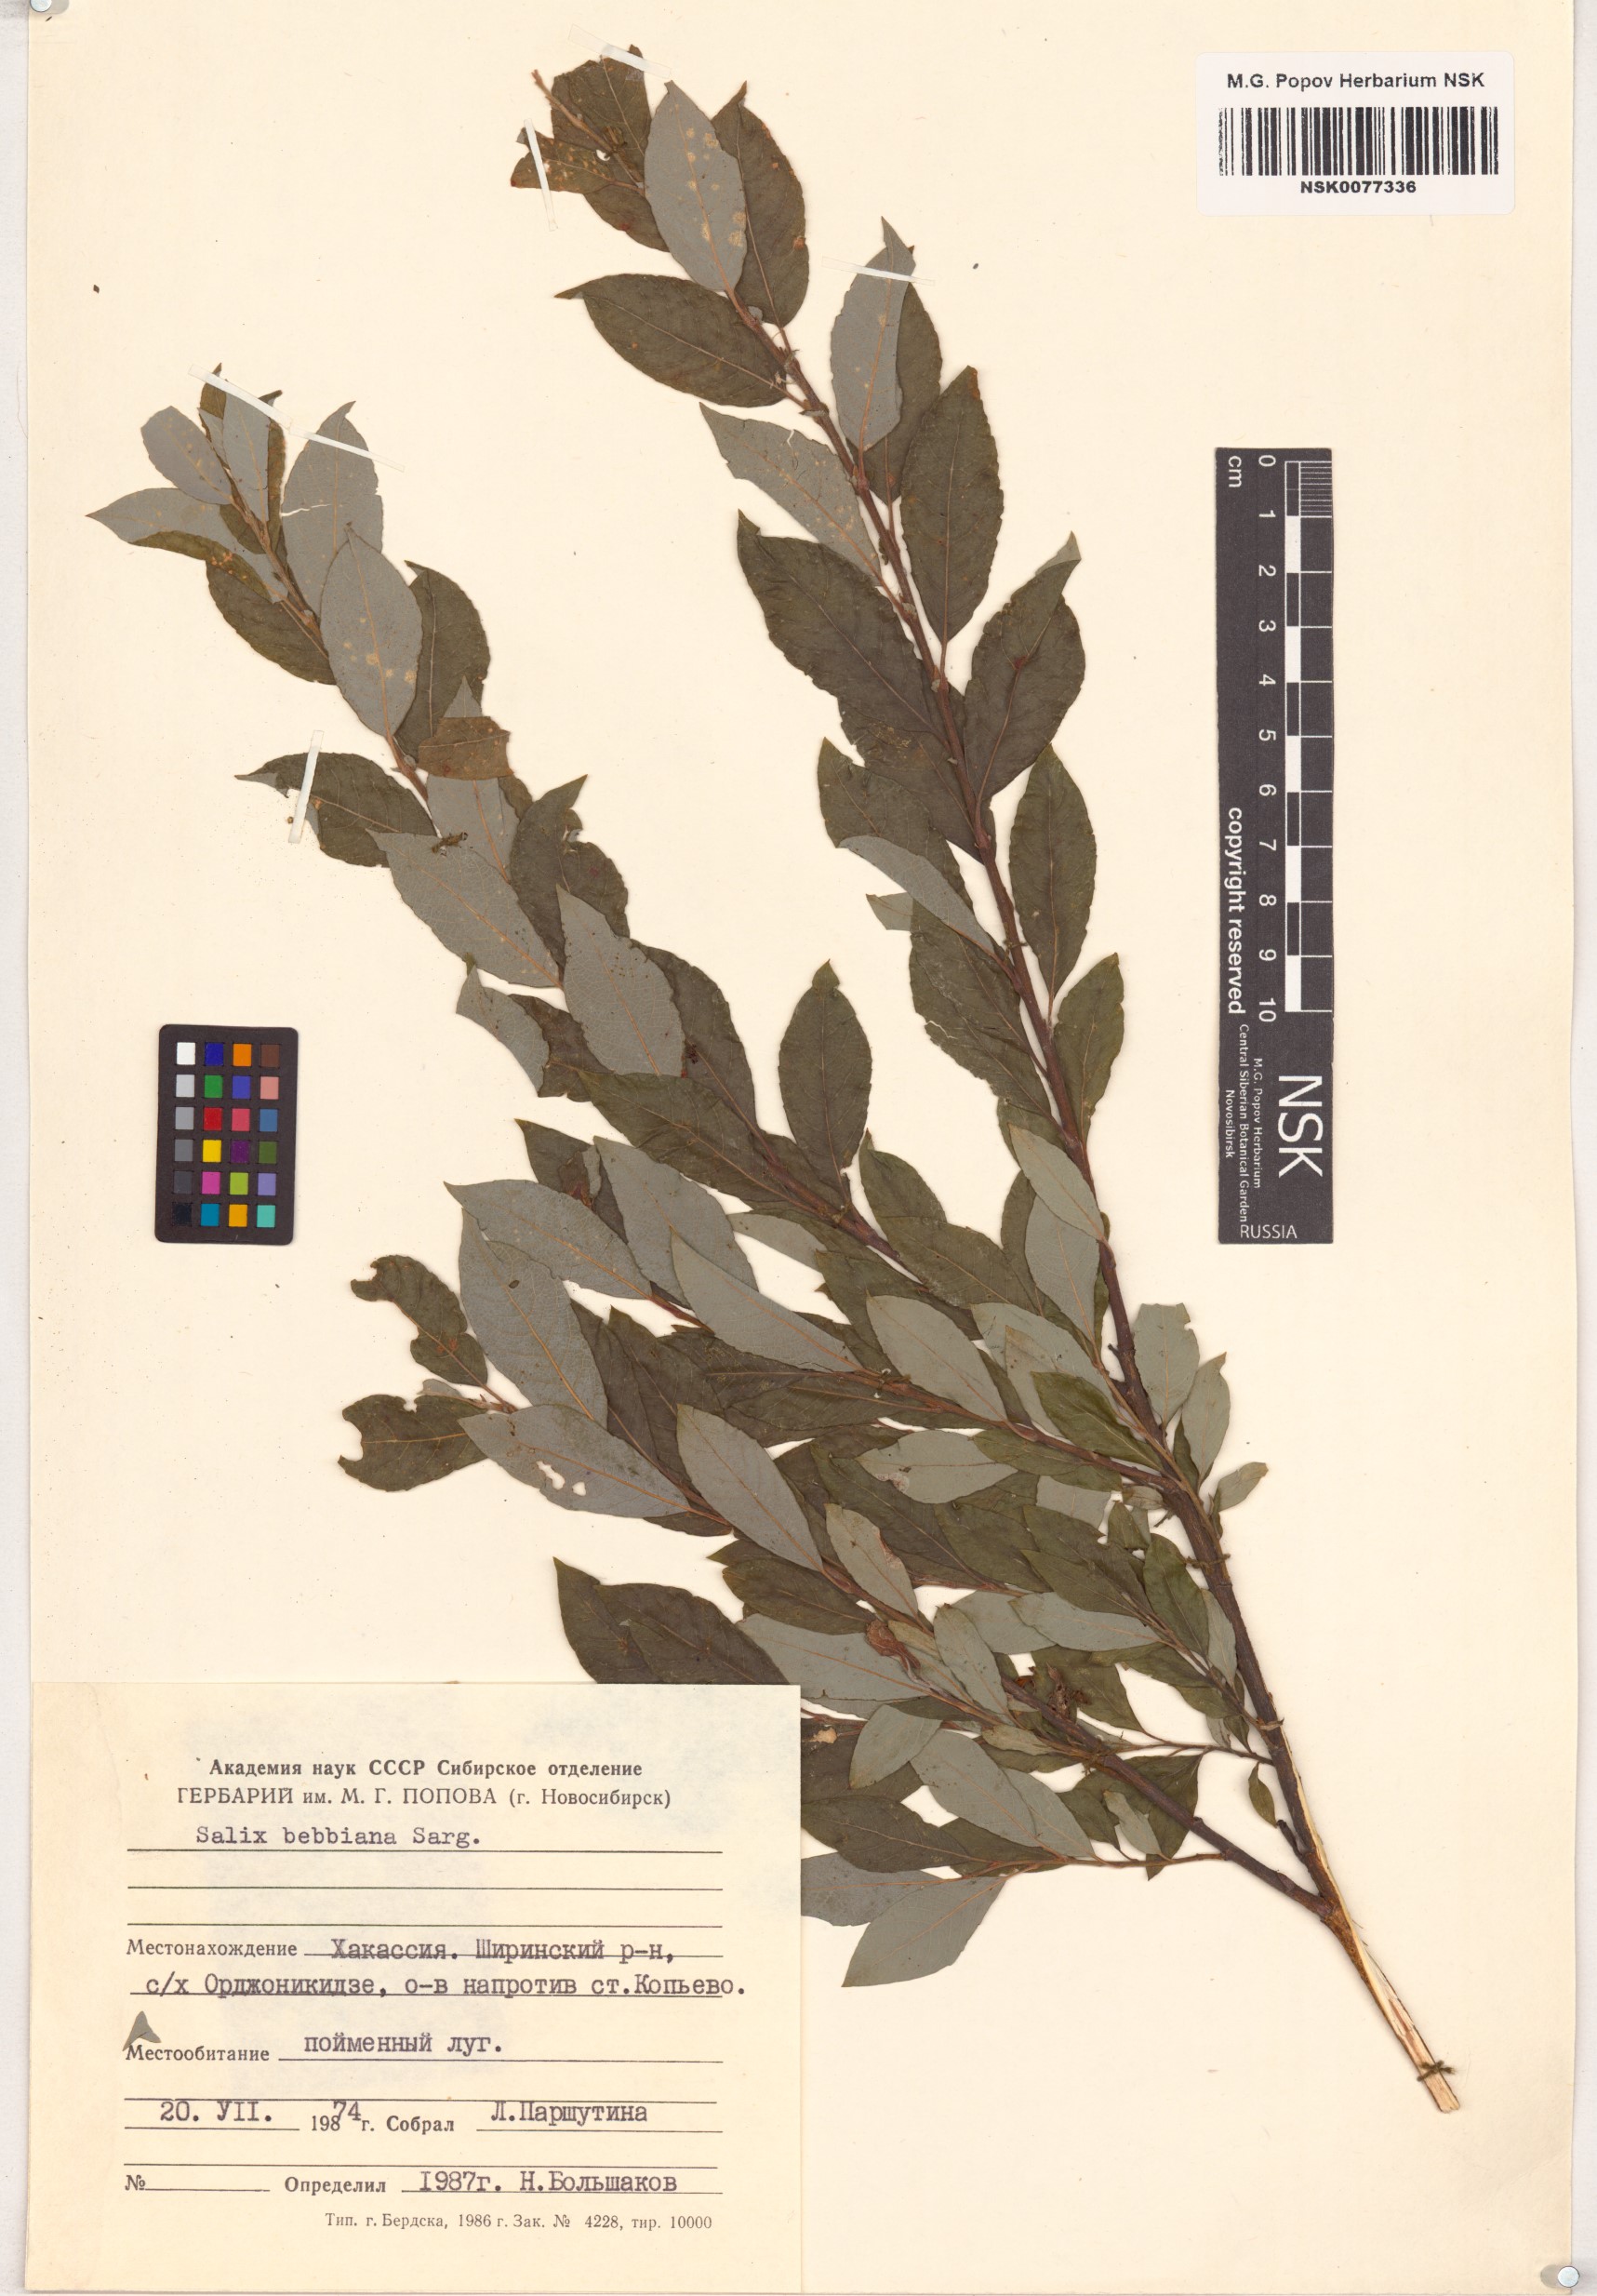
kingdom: Plantae
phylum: Tracheophyta
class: Magnoliopsida
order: Malpighiales
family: Salicaceae
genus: Salix
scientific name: Salix bebbiana
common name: Bebb's willow
